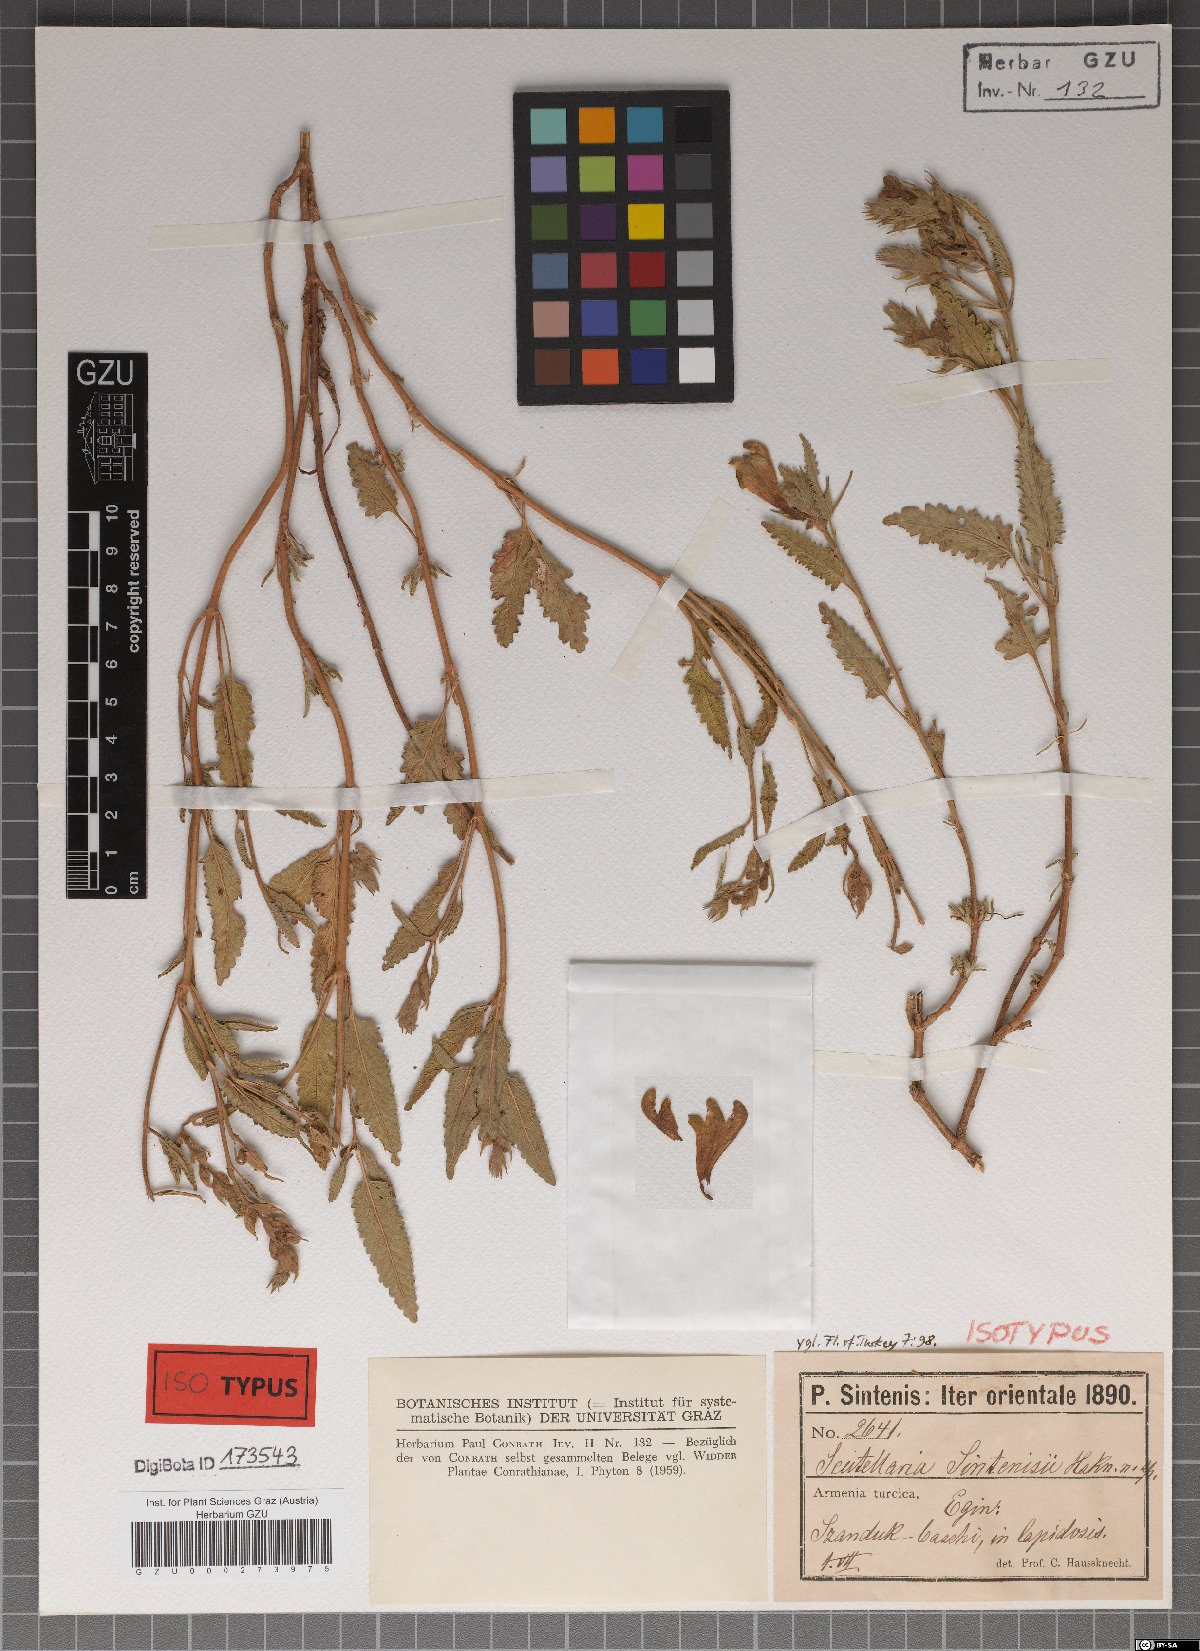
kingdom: Plantae
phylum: Tracheophyta
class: Magnoliopsida
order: Lamiales
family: Lamiaceae
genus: Scutellaria
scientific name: Scutellaria orientalis
